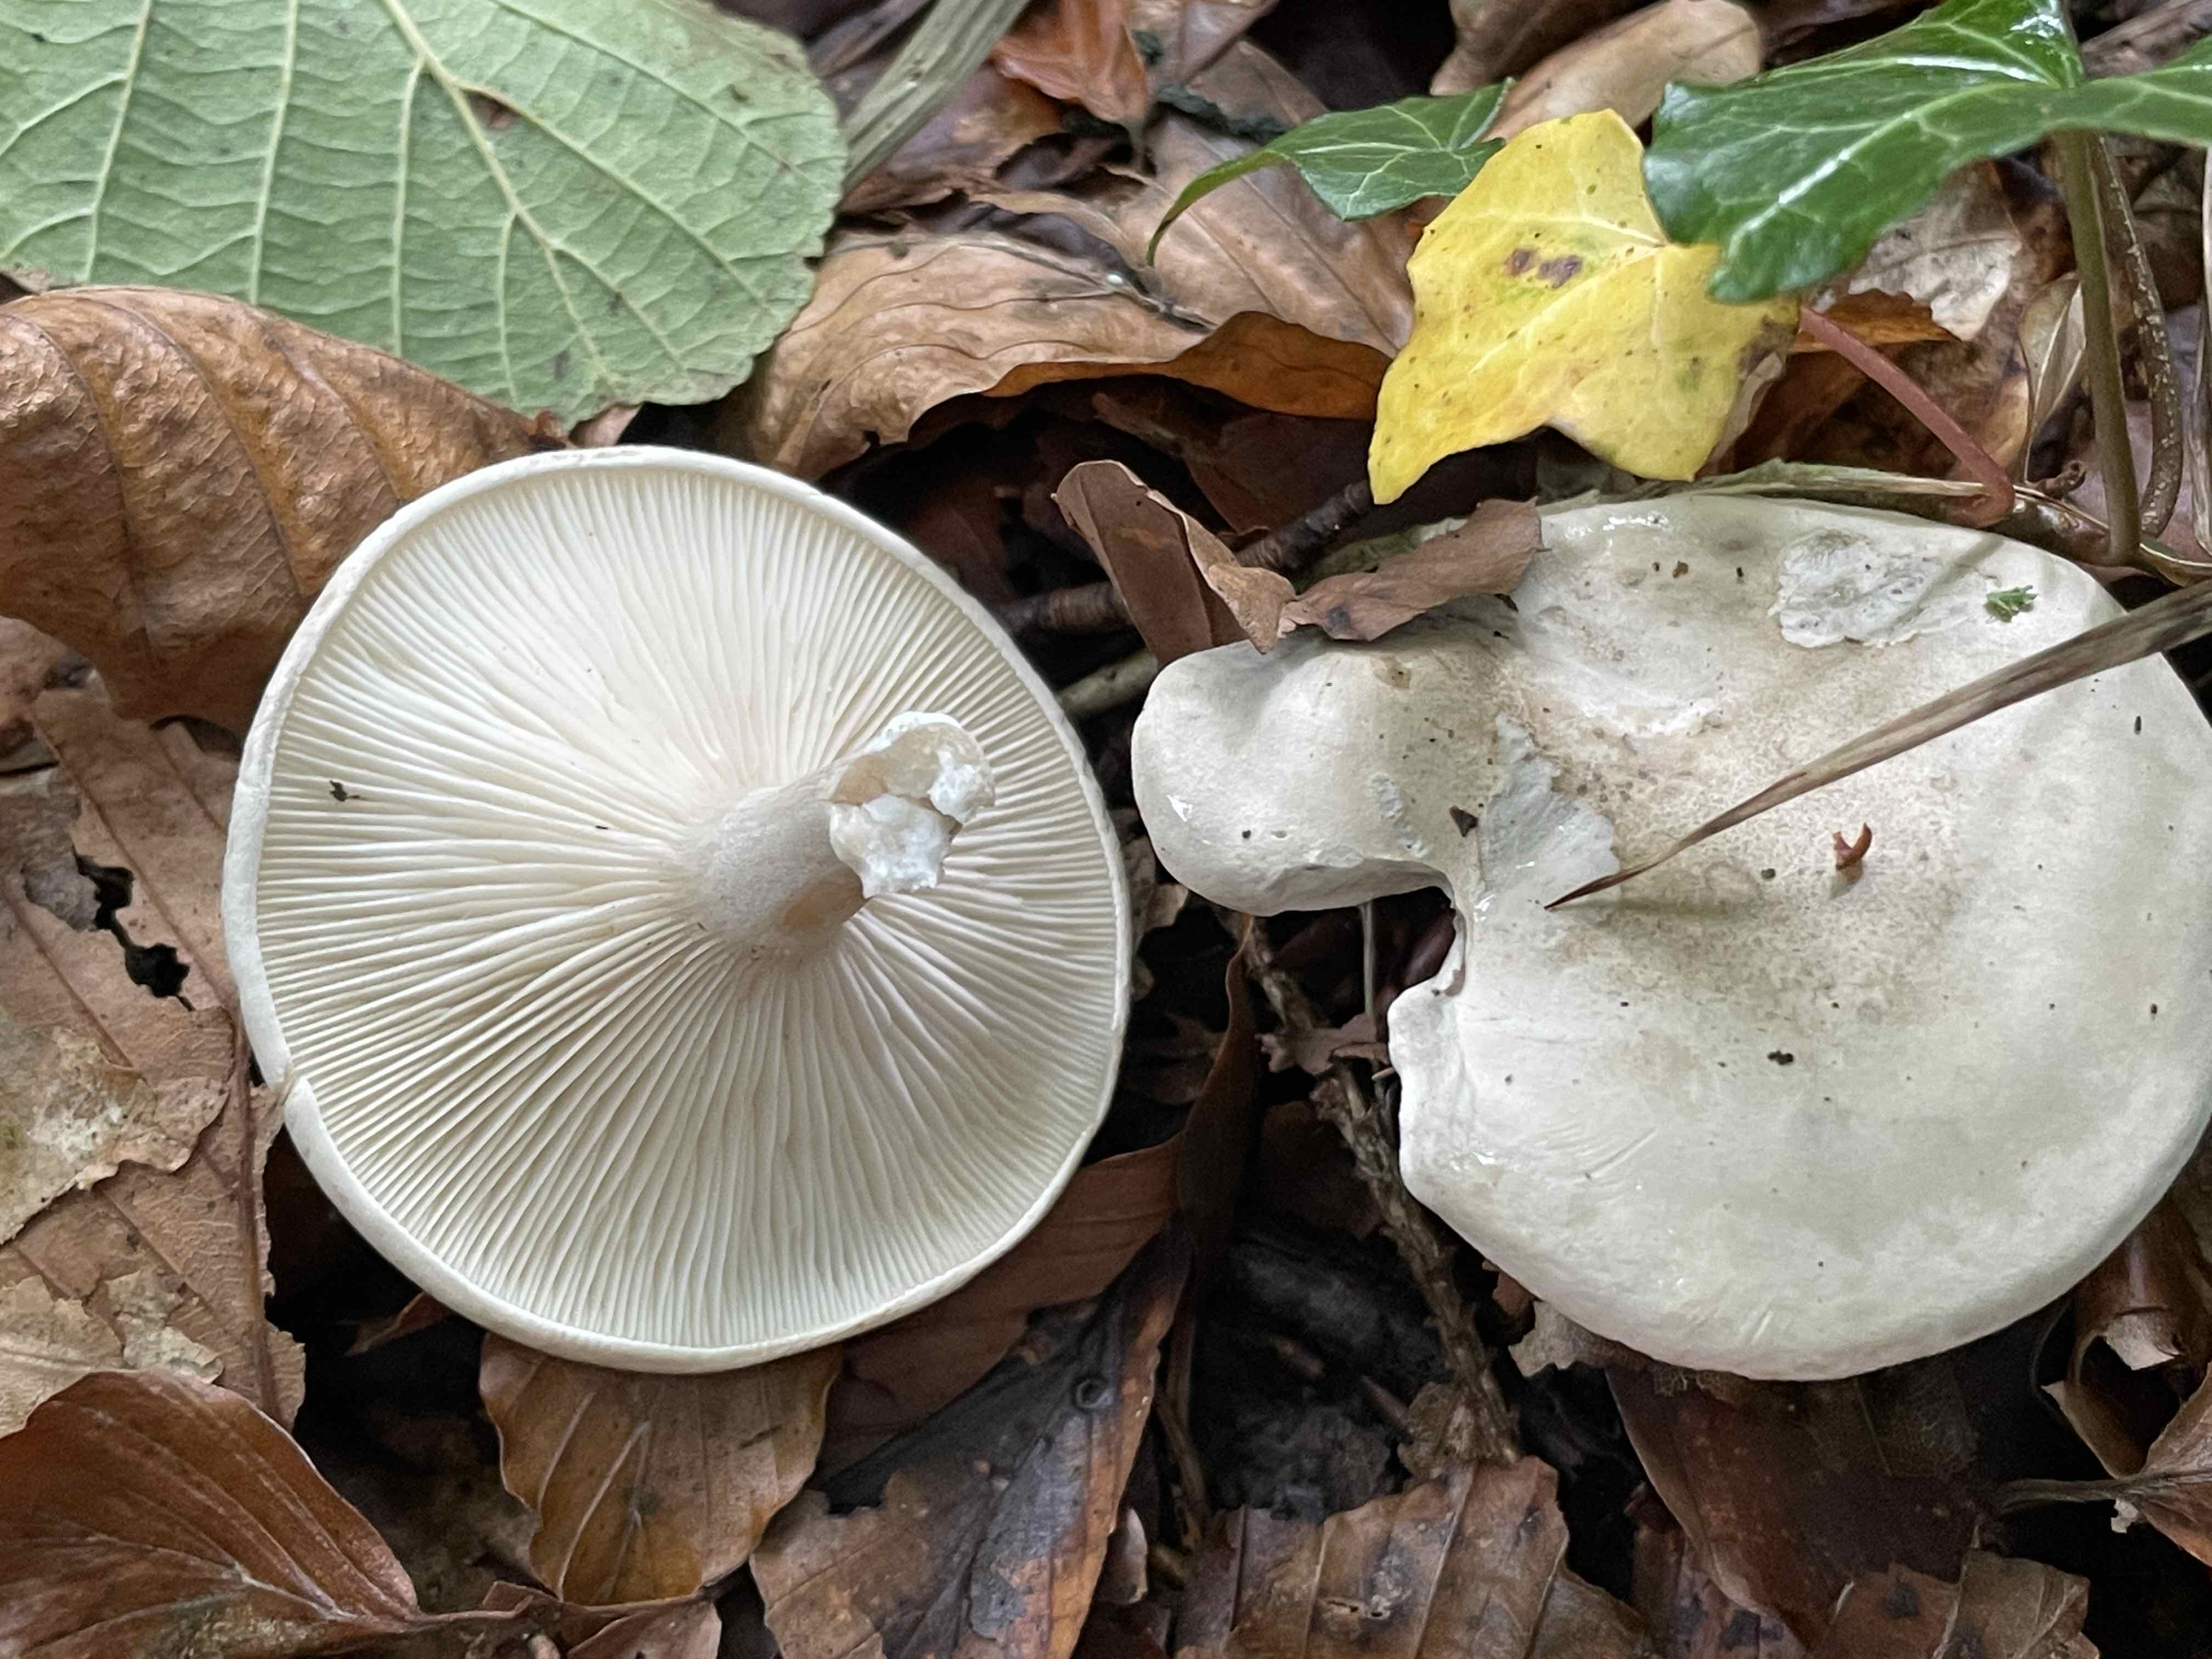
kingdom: Fungi
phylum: Basidiomycota
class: Agaricomycetes
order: Agaricales
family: Entolomataceae
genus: Clitopilus
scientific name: Clitopilus prunulus
